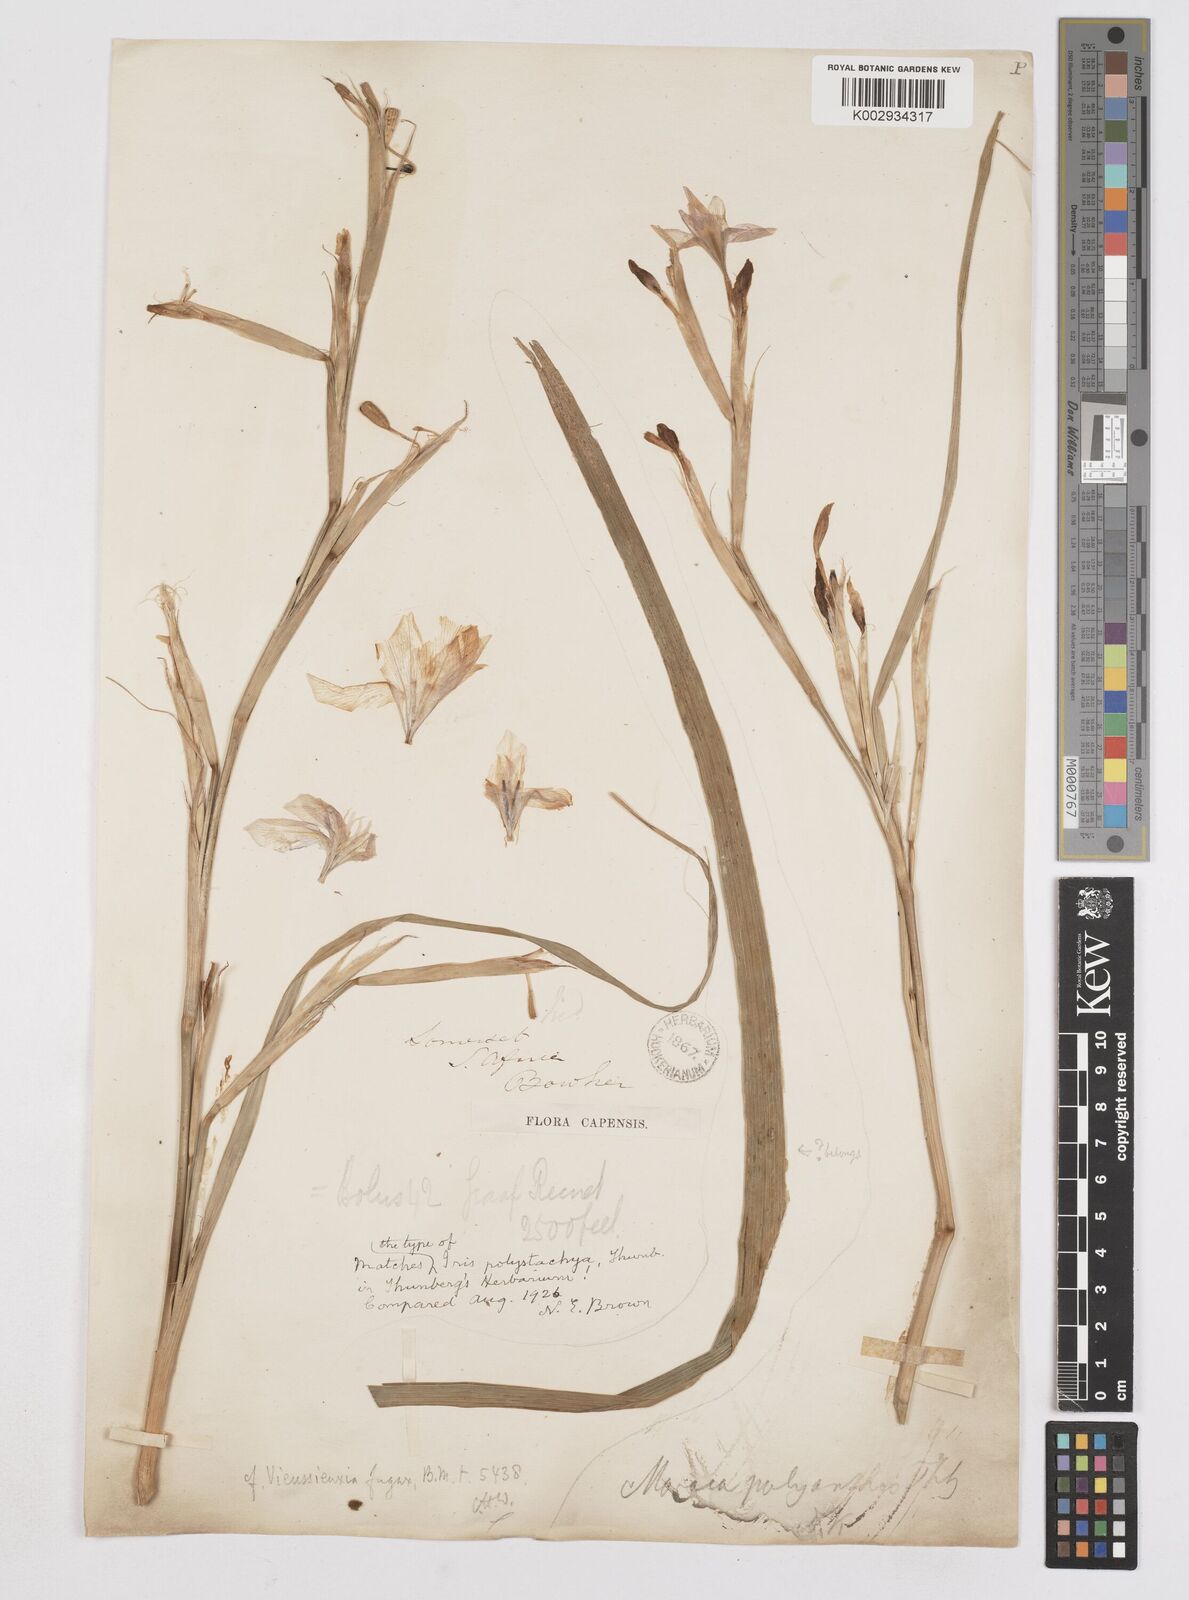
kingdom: Plantae
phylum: Tracheophyta
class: Liliopsida
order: Asparagales
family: Iridaceae
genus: Moraea
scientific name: Moraea polystachya
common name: Blue-tulip
